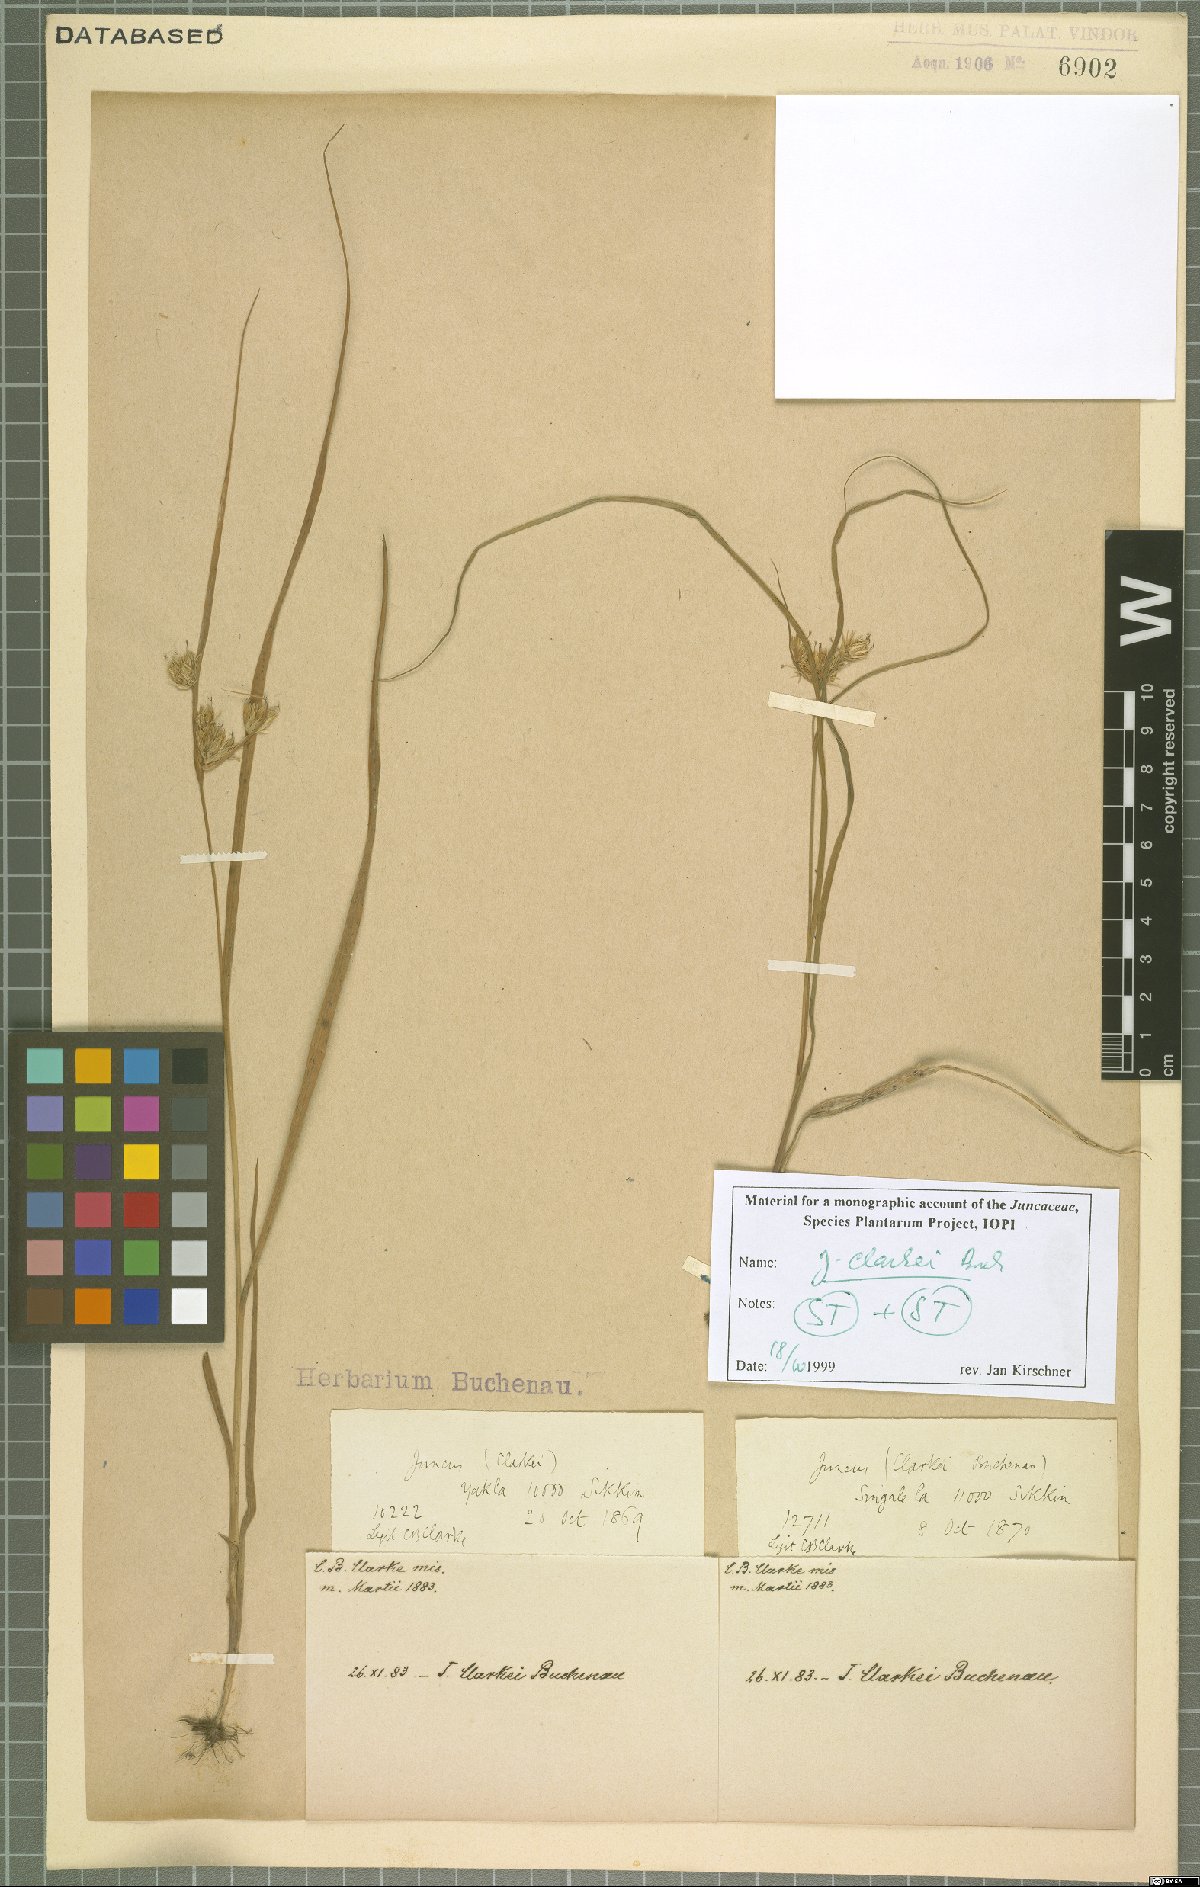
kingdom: Plantae
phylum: Tracheophyta
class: Liliopsida
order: Poales
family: Juncaceae
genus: Juncus
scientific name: Juncus clarkei
